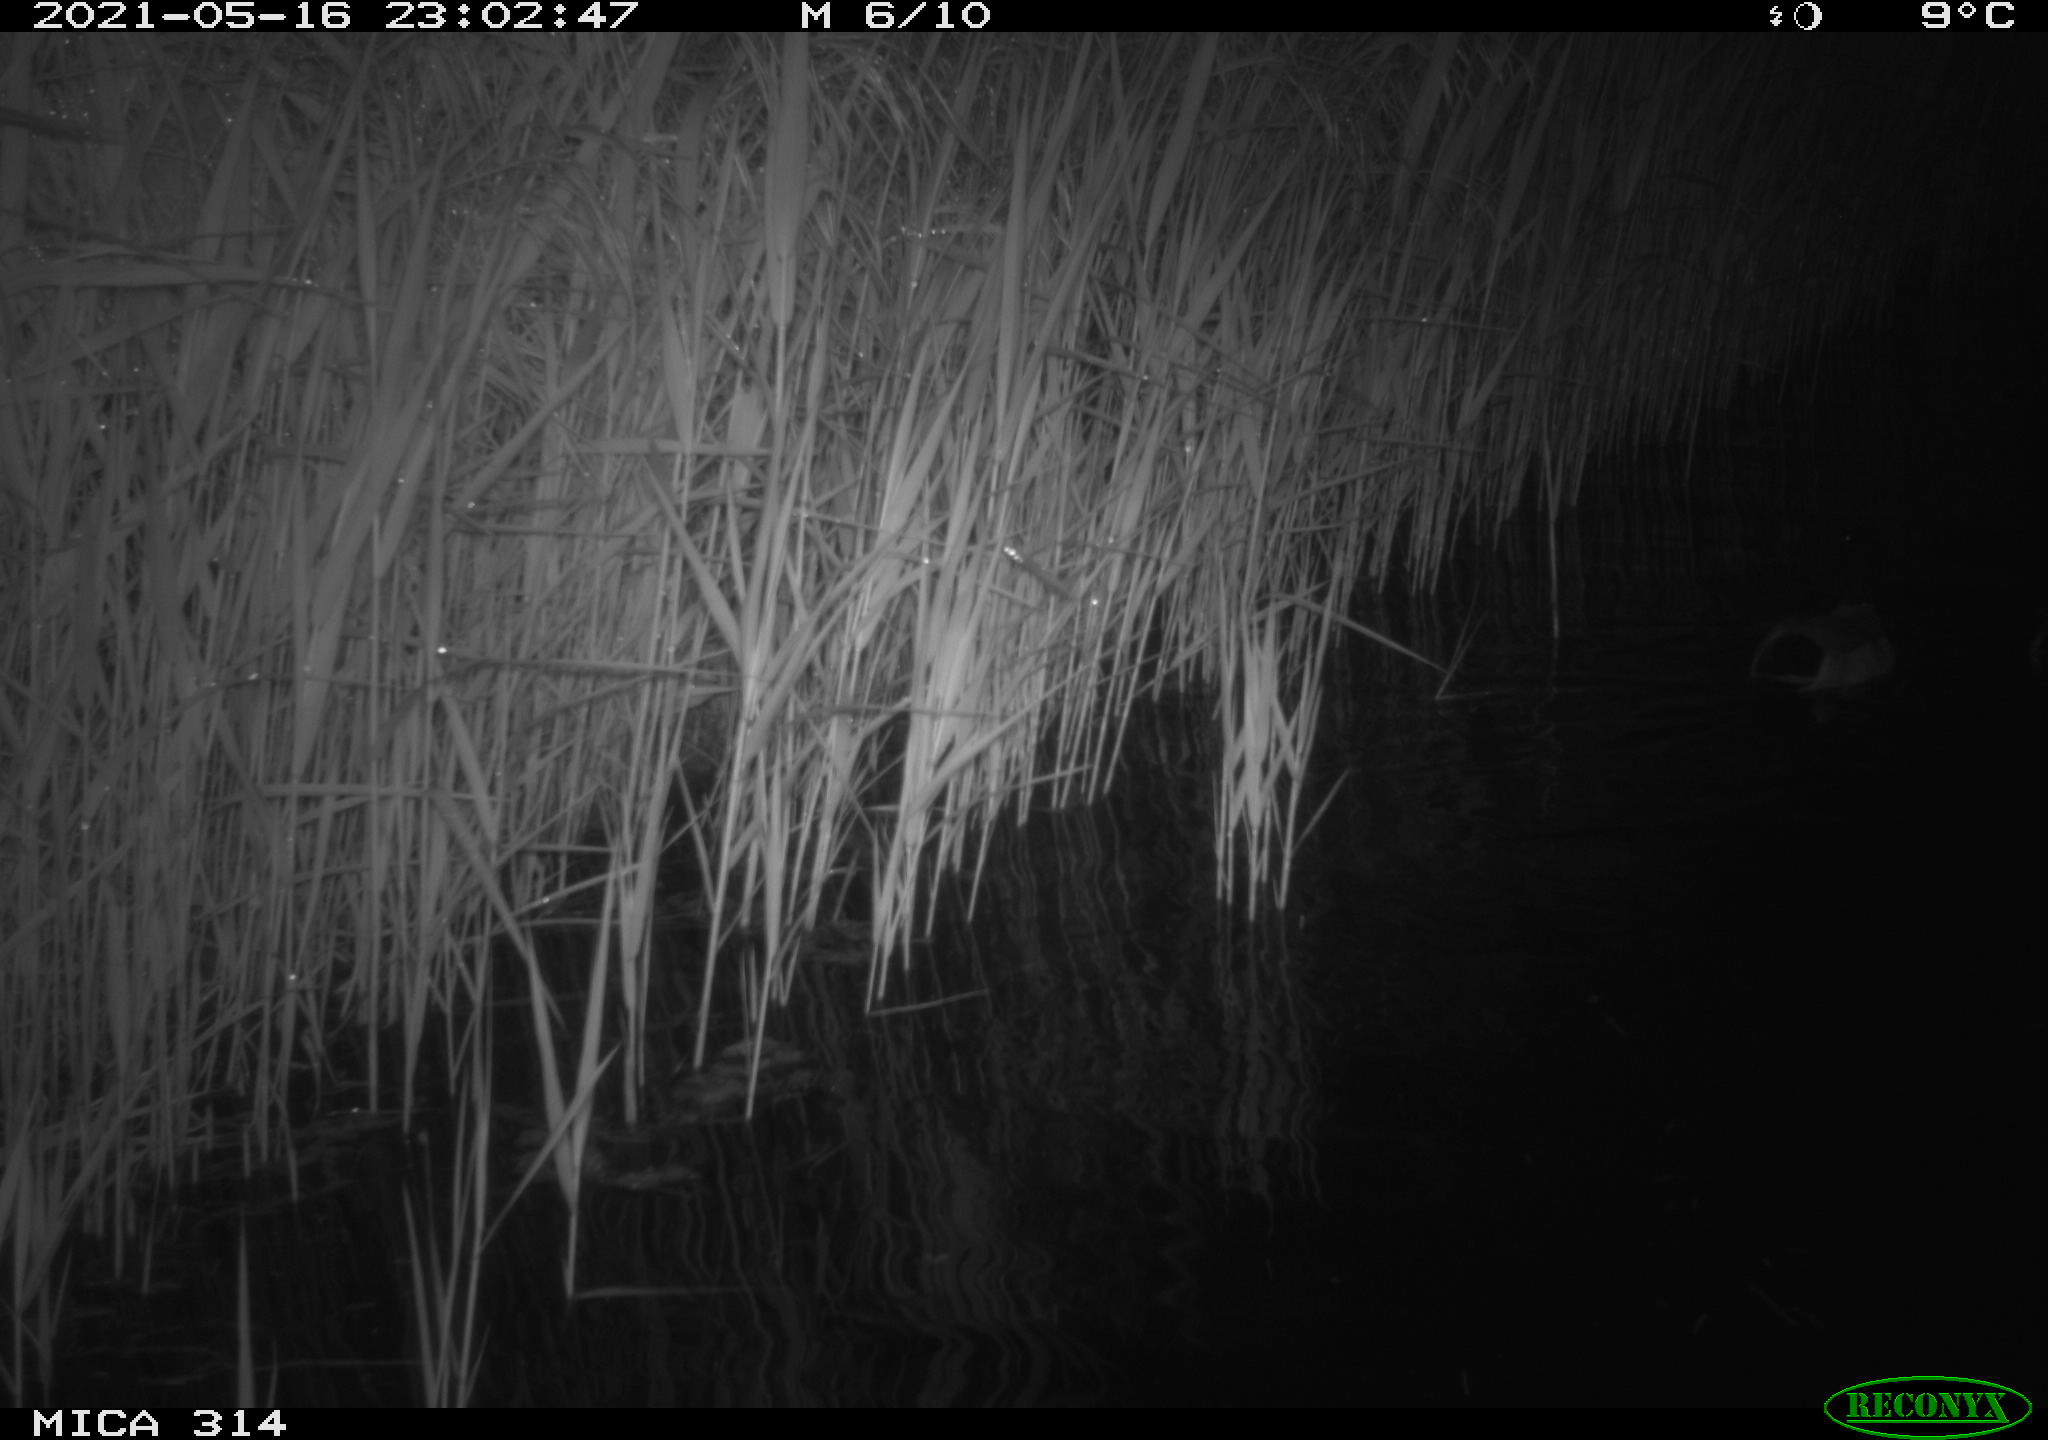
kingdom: Animalia
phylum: Chordata
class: Aves
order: Anseriformes
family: Anatidae
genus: Anas
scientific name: Anas platyrhynchos
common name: Mallard
